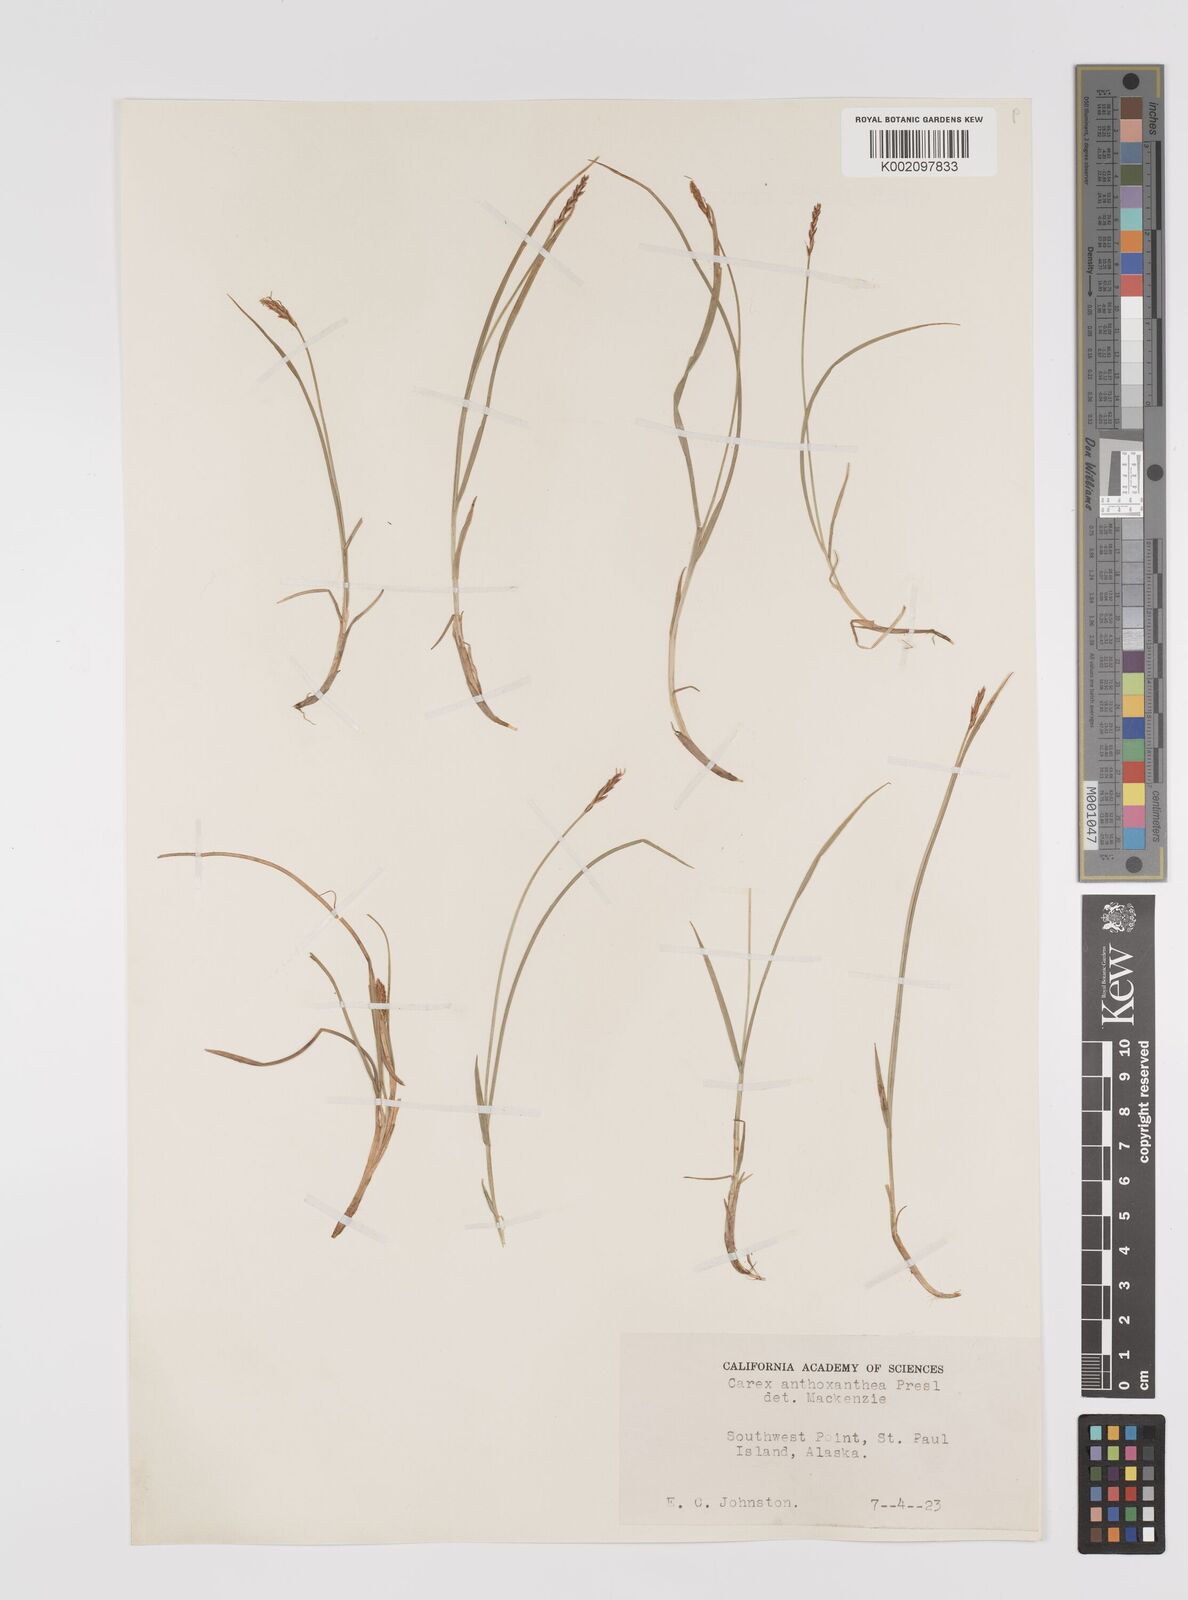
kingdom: Plantae
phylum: Tracheophyta
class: Liliopsida
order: Poales
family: Cyperaceae
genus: Carex
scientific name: Carex anthoxanthea
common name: Grassy-slope arctic sedge
